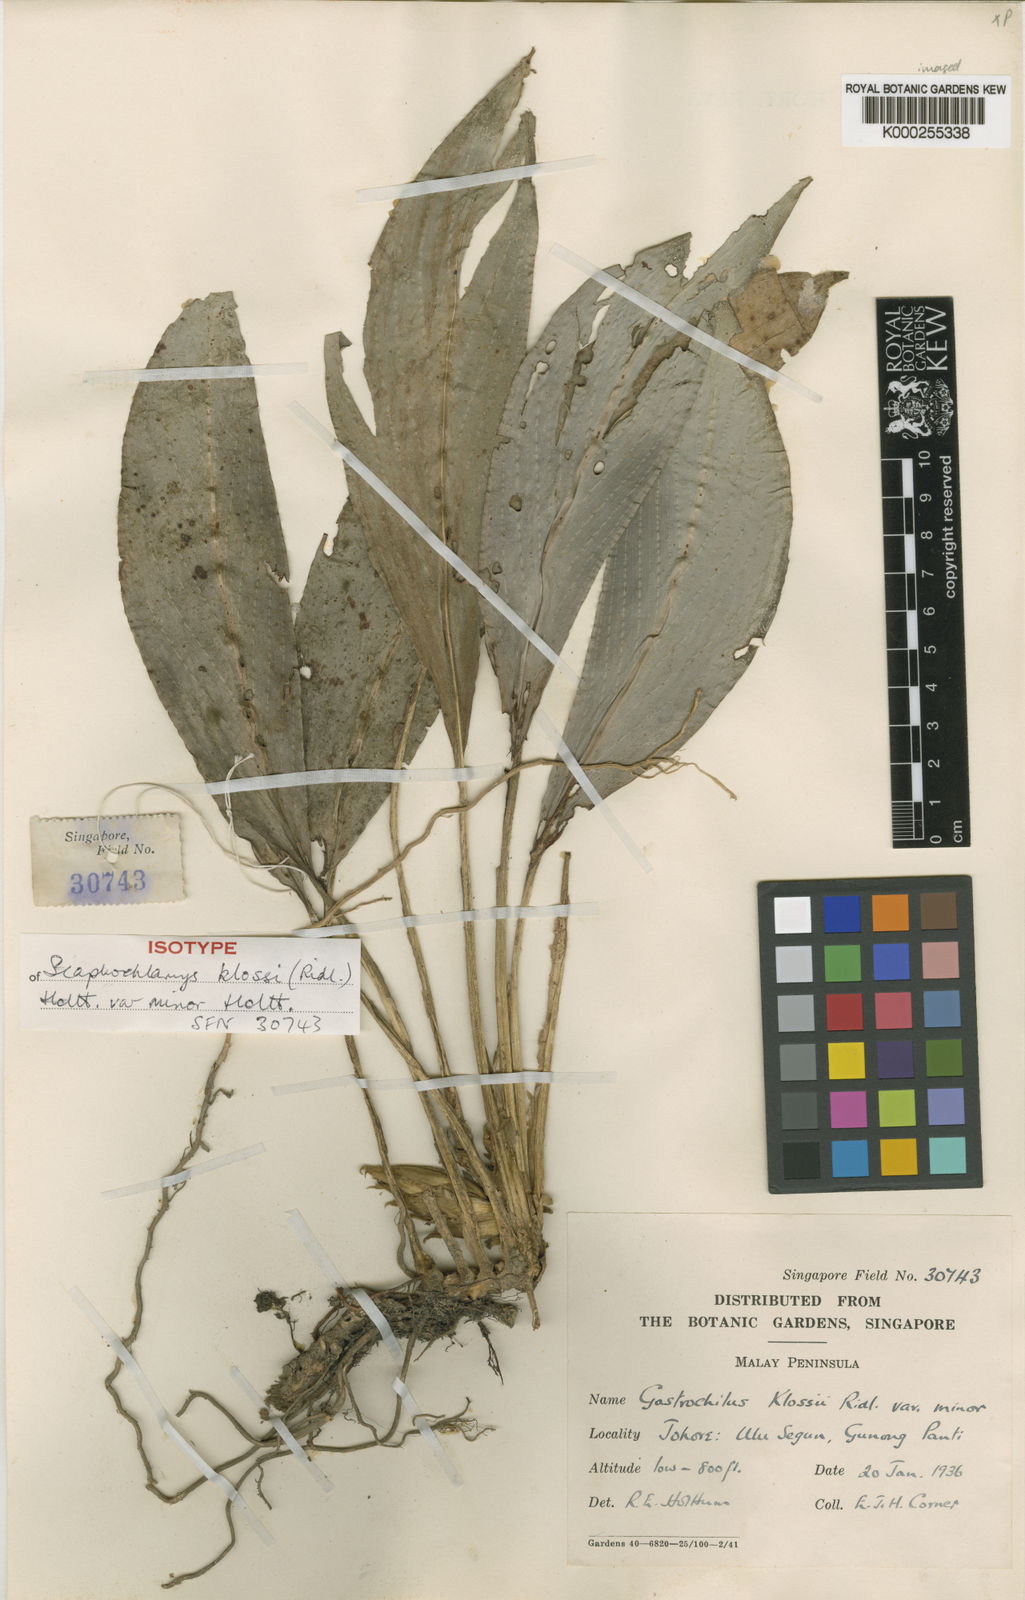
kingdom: Plantae
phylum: Tracheophyta
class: Liliopsida
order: Zingiberales
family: Zingiberaceae
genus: Scaphochlamys
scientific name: Scaphochlamys klossii
